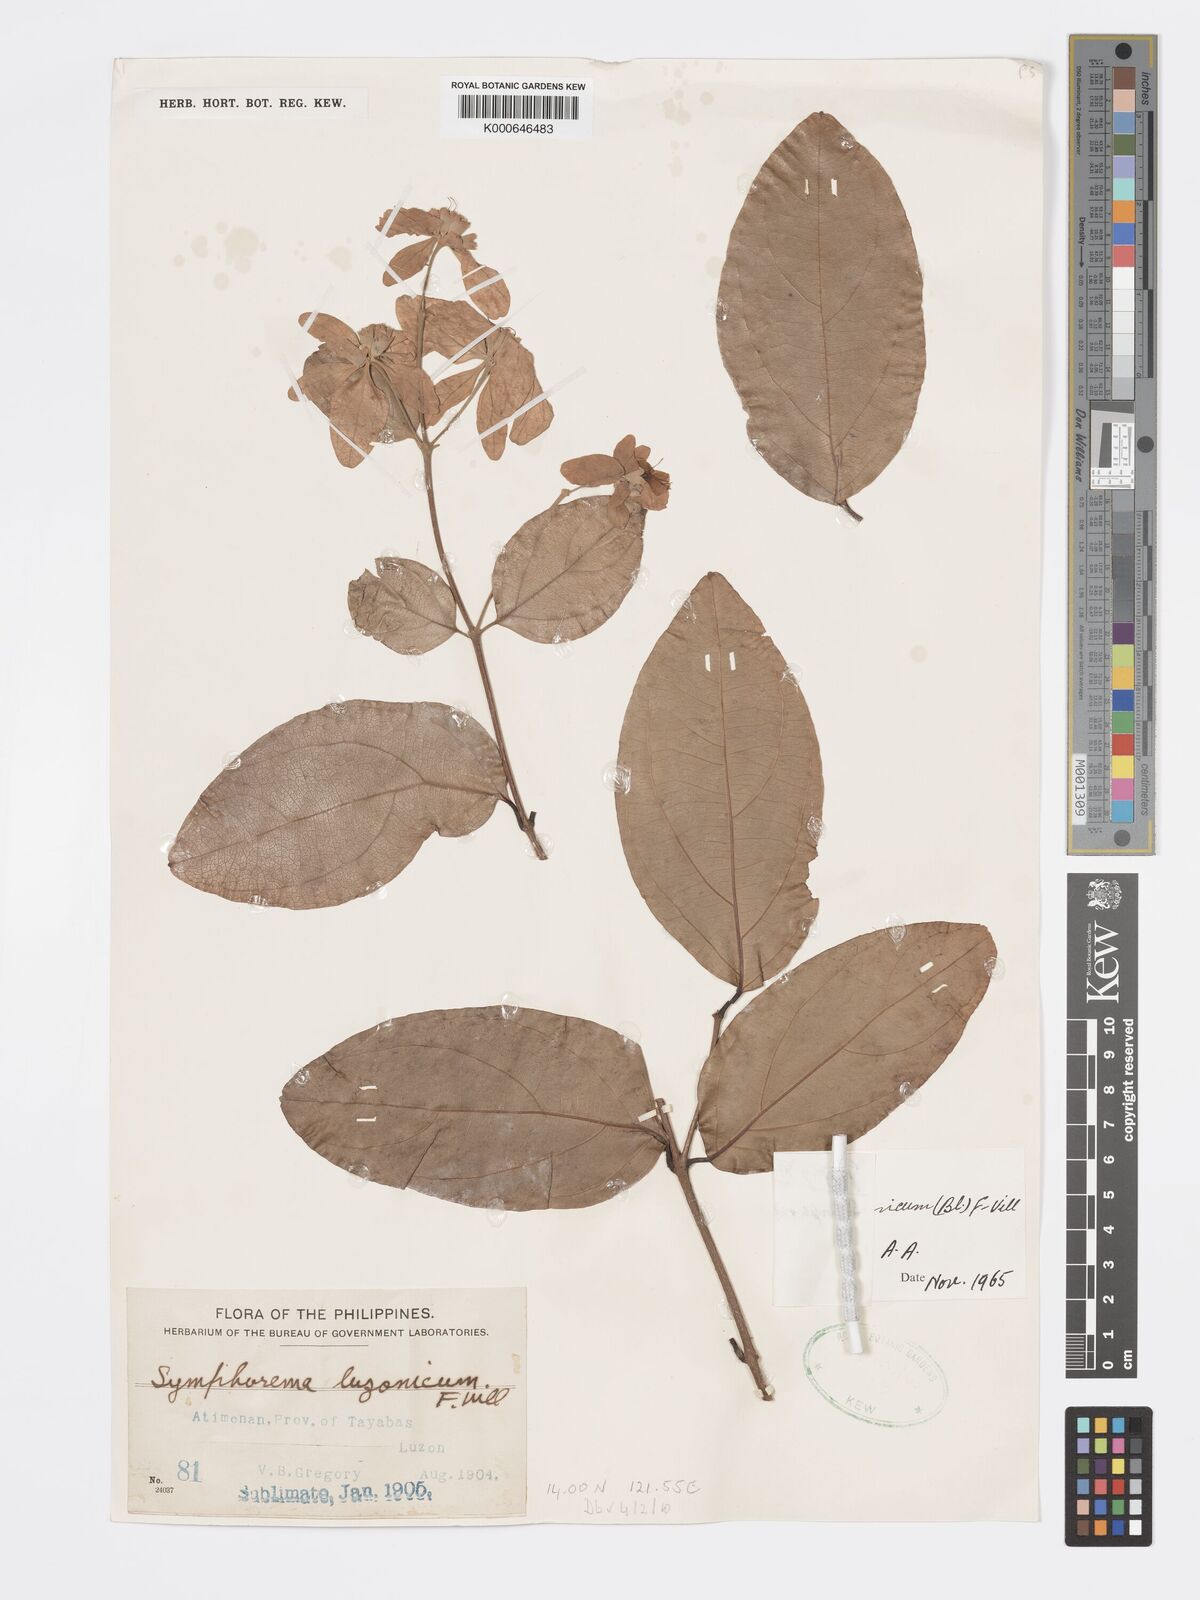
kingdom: Plantae
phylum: Tracheophyta
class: Magnoliopsida
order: Lamiales
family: Lamiaceae
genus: Symphorema
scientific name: Symphorema luzonicum
